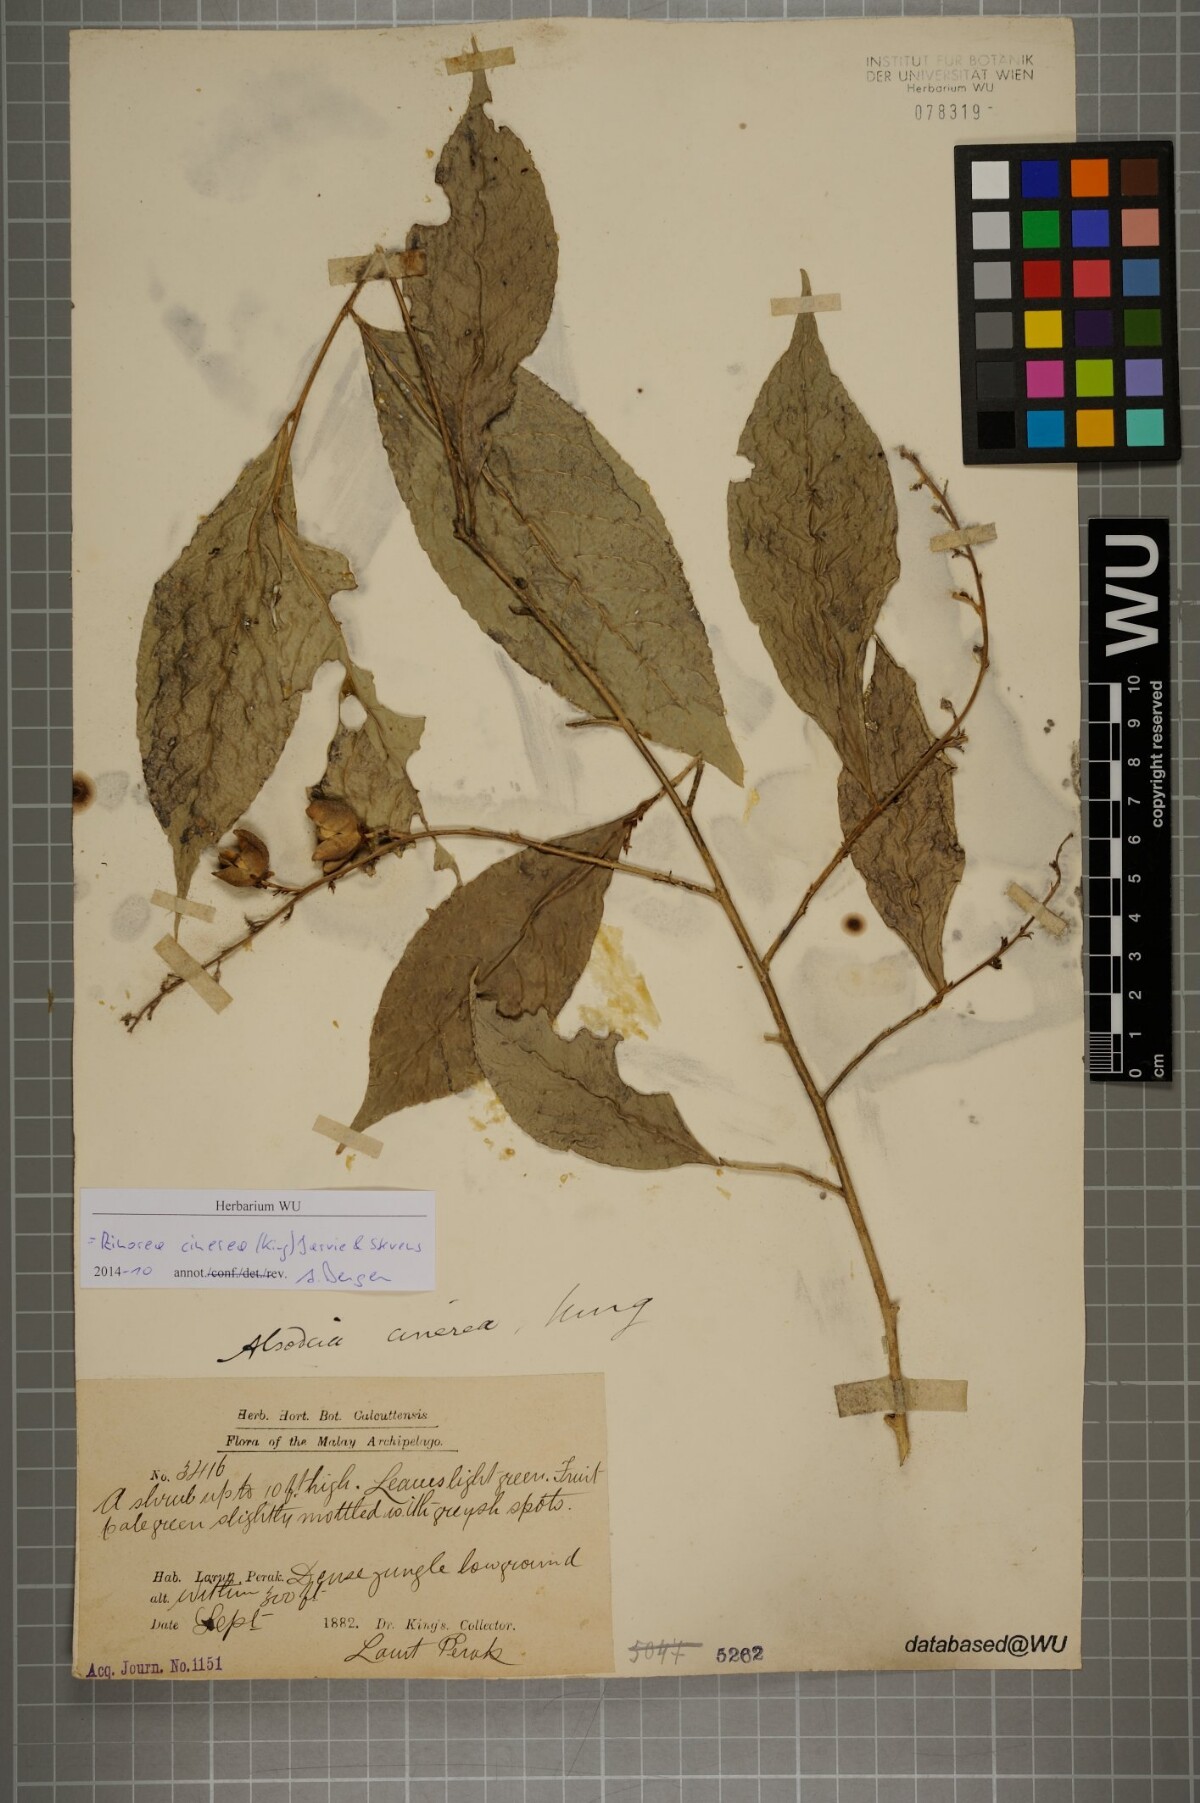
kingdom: Plantae
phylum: Tracheophyta
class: Magnoliopsida
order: Malpighiales
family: Violaceae
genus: Rinorea
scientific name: Rinorea cinerea
